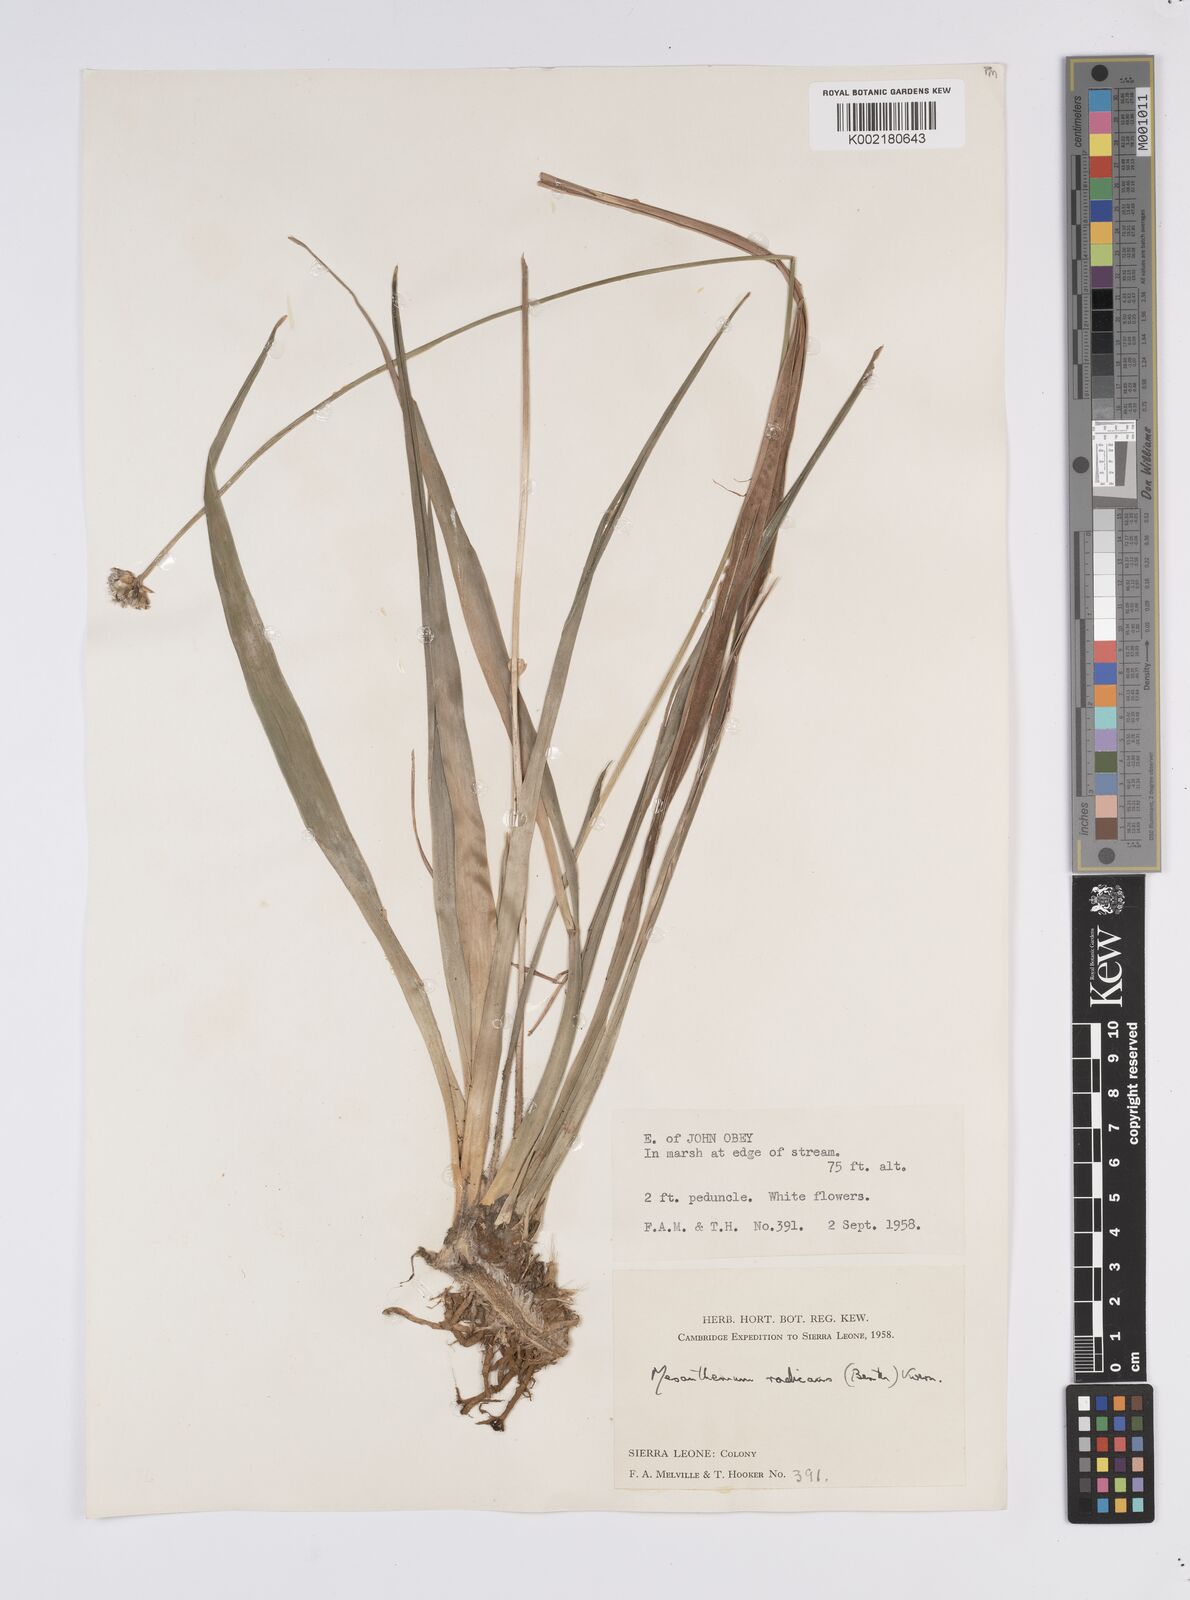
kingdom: Plantae
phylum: Tracheophyta
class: Liliopsida
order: Poales
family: Eriocaulaceae
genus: Mesanthemum
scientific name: Mesanthemum radicans
